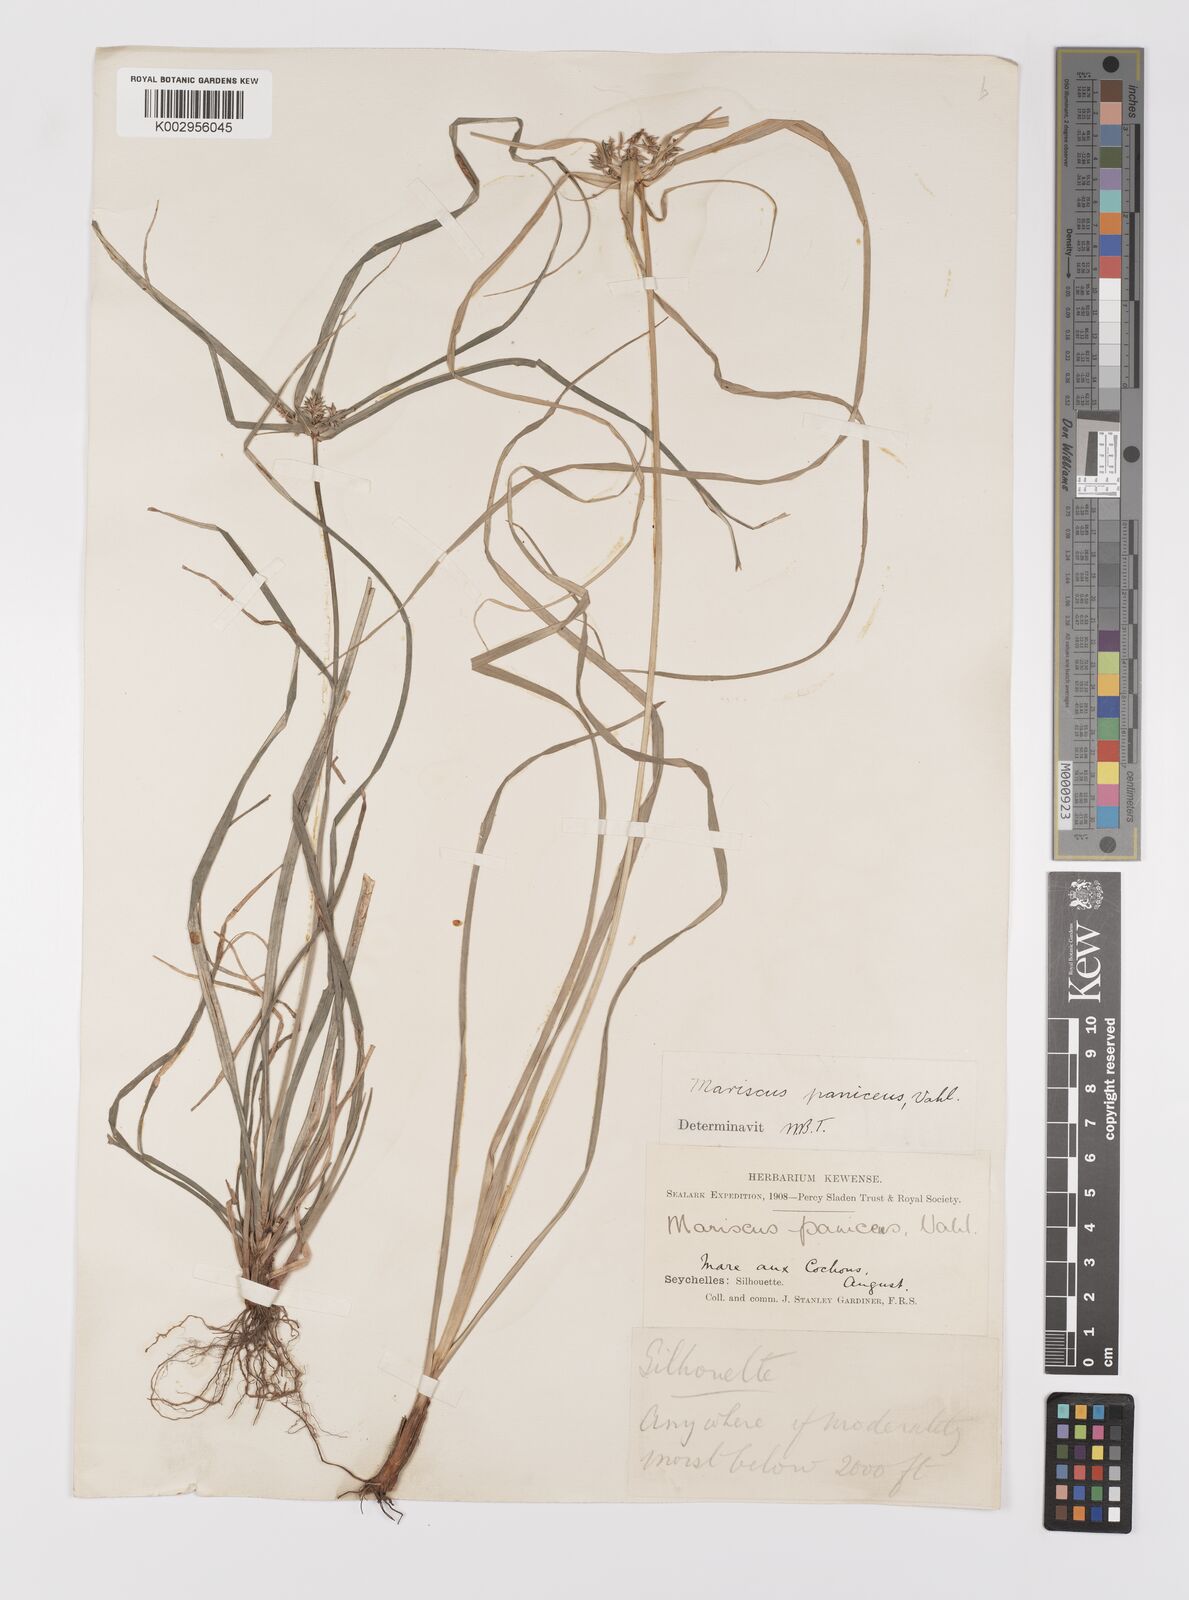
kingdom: Plantae
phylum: Tracheophyta
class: Liliopsida
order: Poales
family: Cyperaceae
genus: Cyperus
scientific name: Cyperus paniceus
